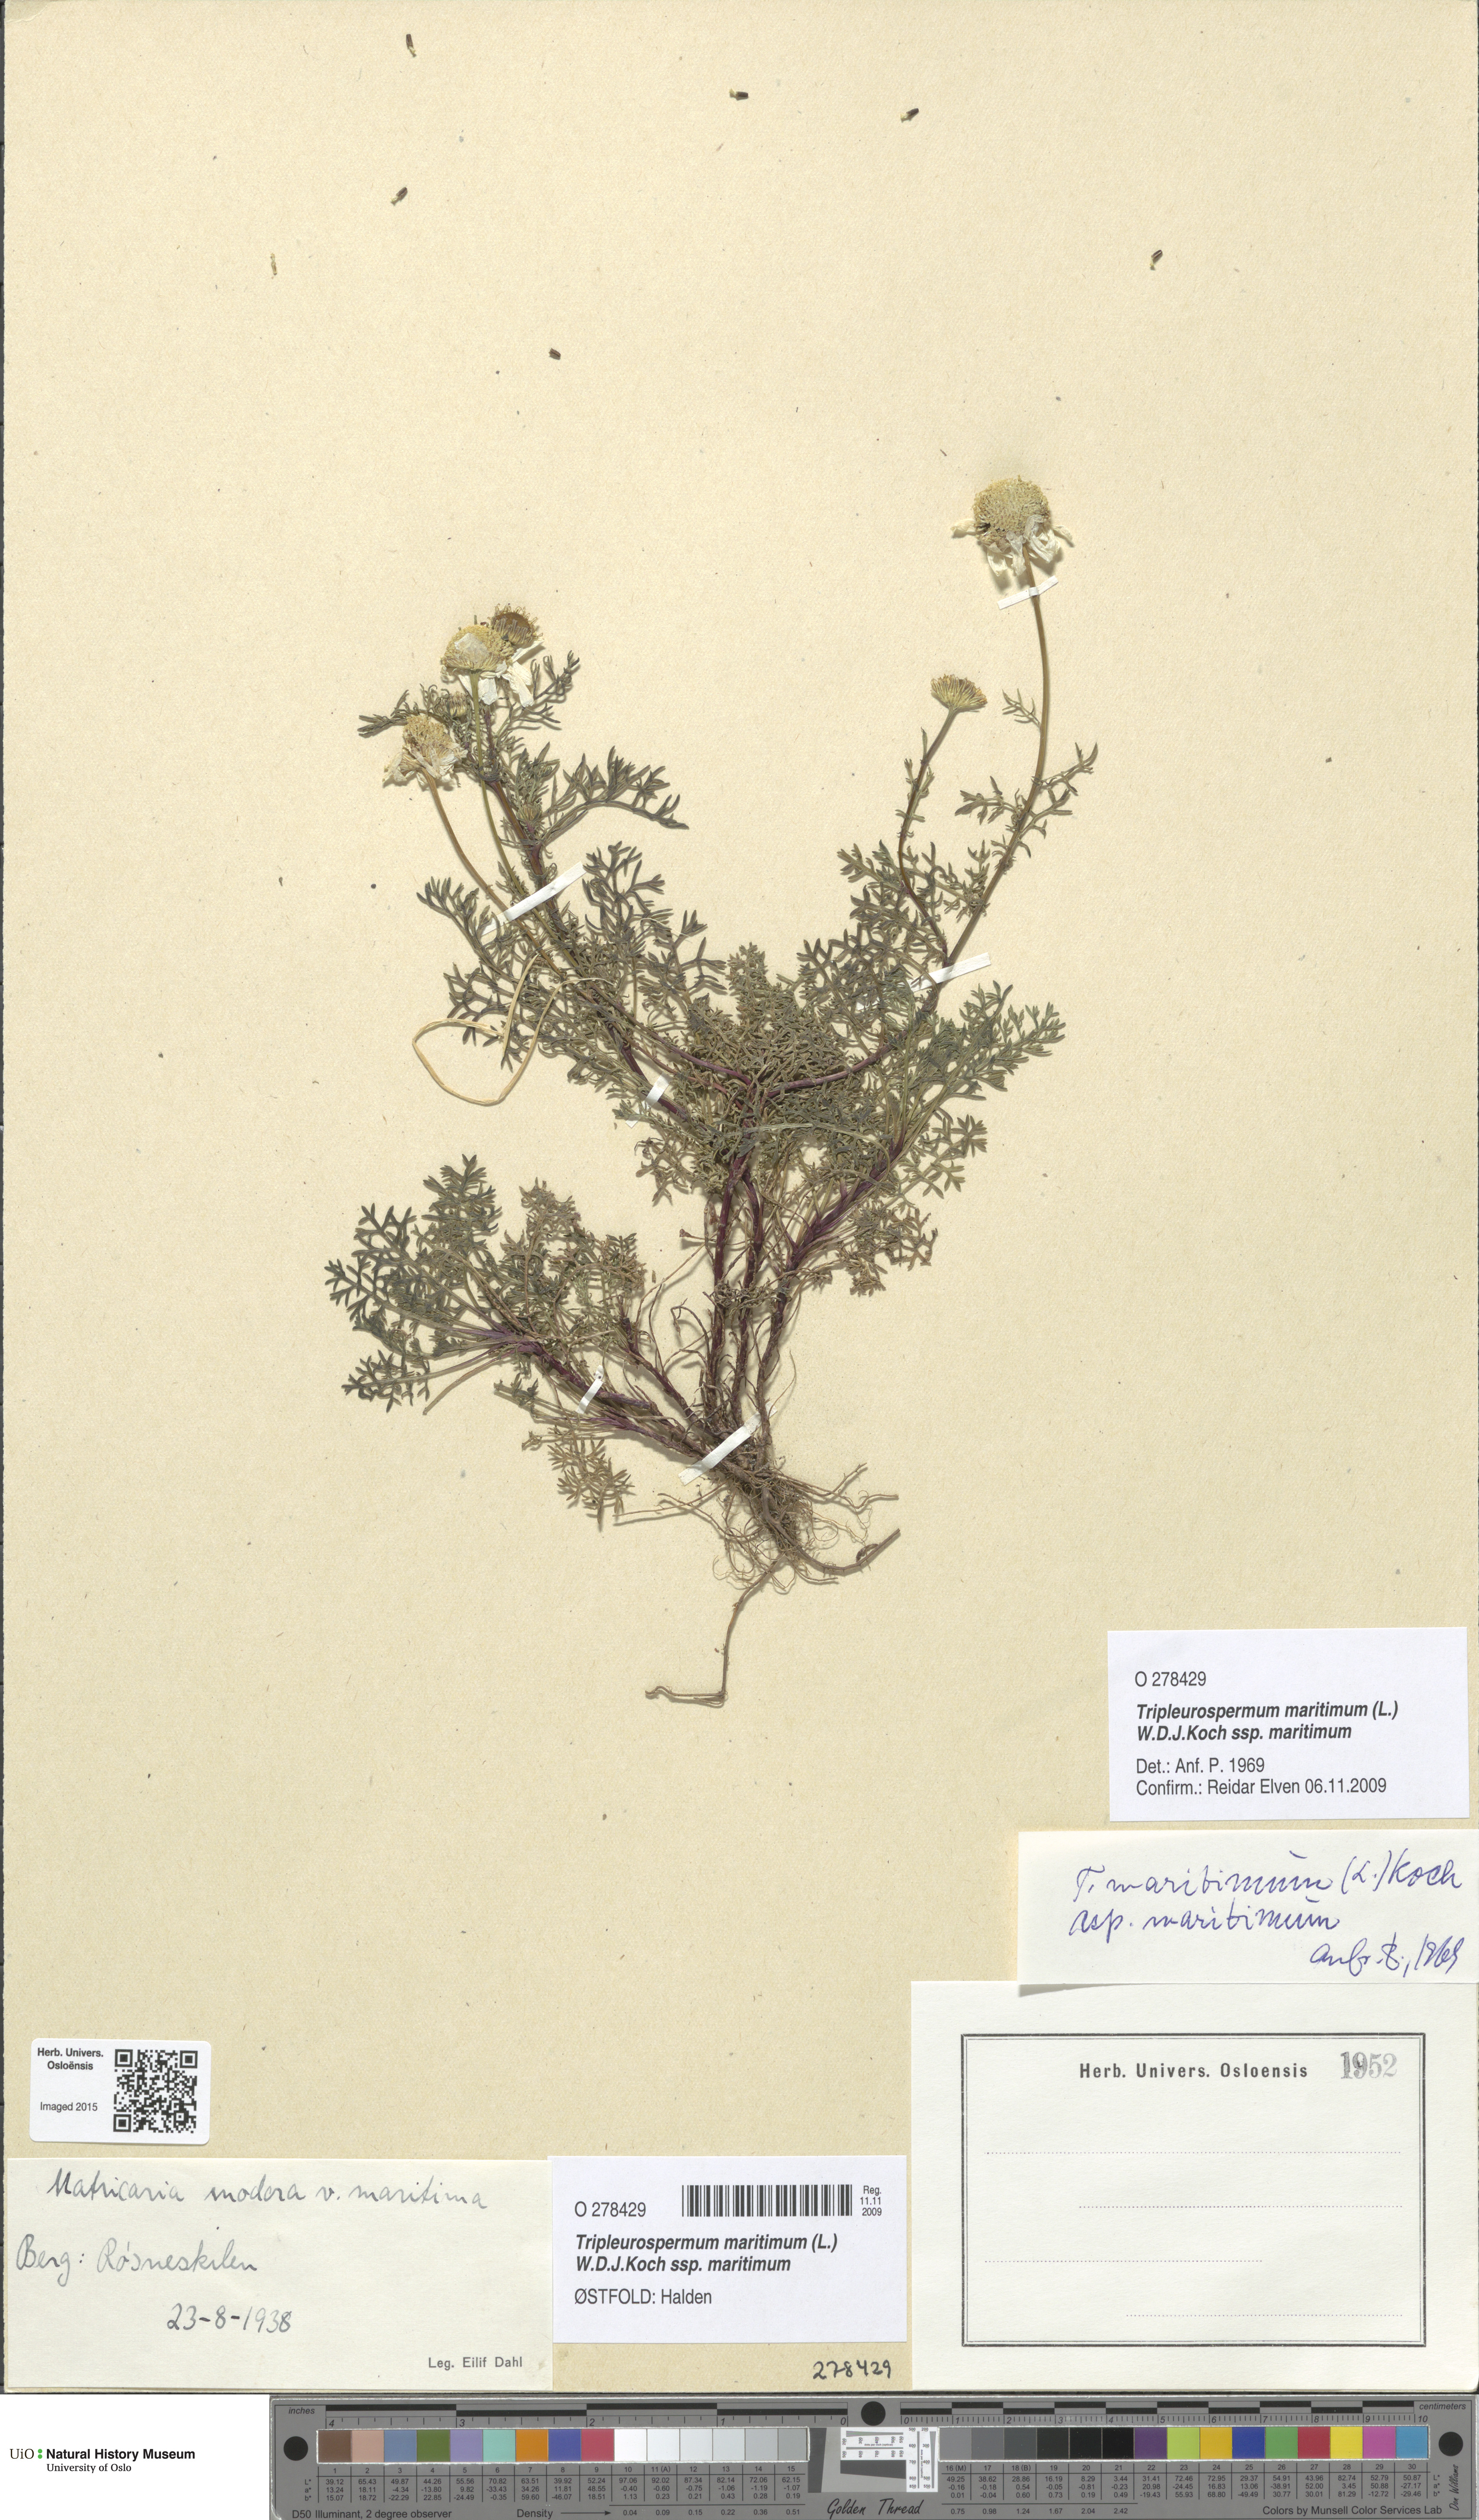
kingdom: Plantae
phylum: Tracheophyta
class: Magnoliopsida
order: Asterales
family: Asteraceae
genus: Tripleurospermum
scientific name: Tripleurospermum maritimum
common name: Sea mayweed
